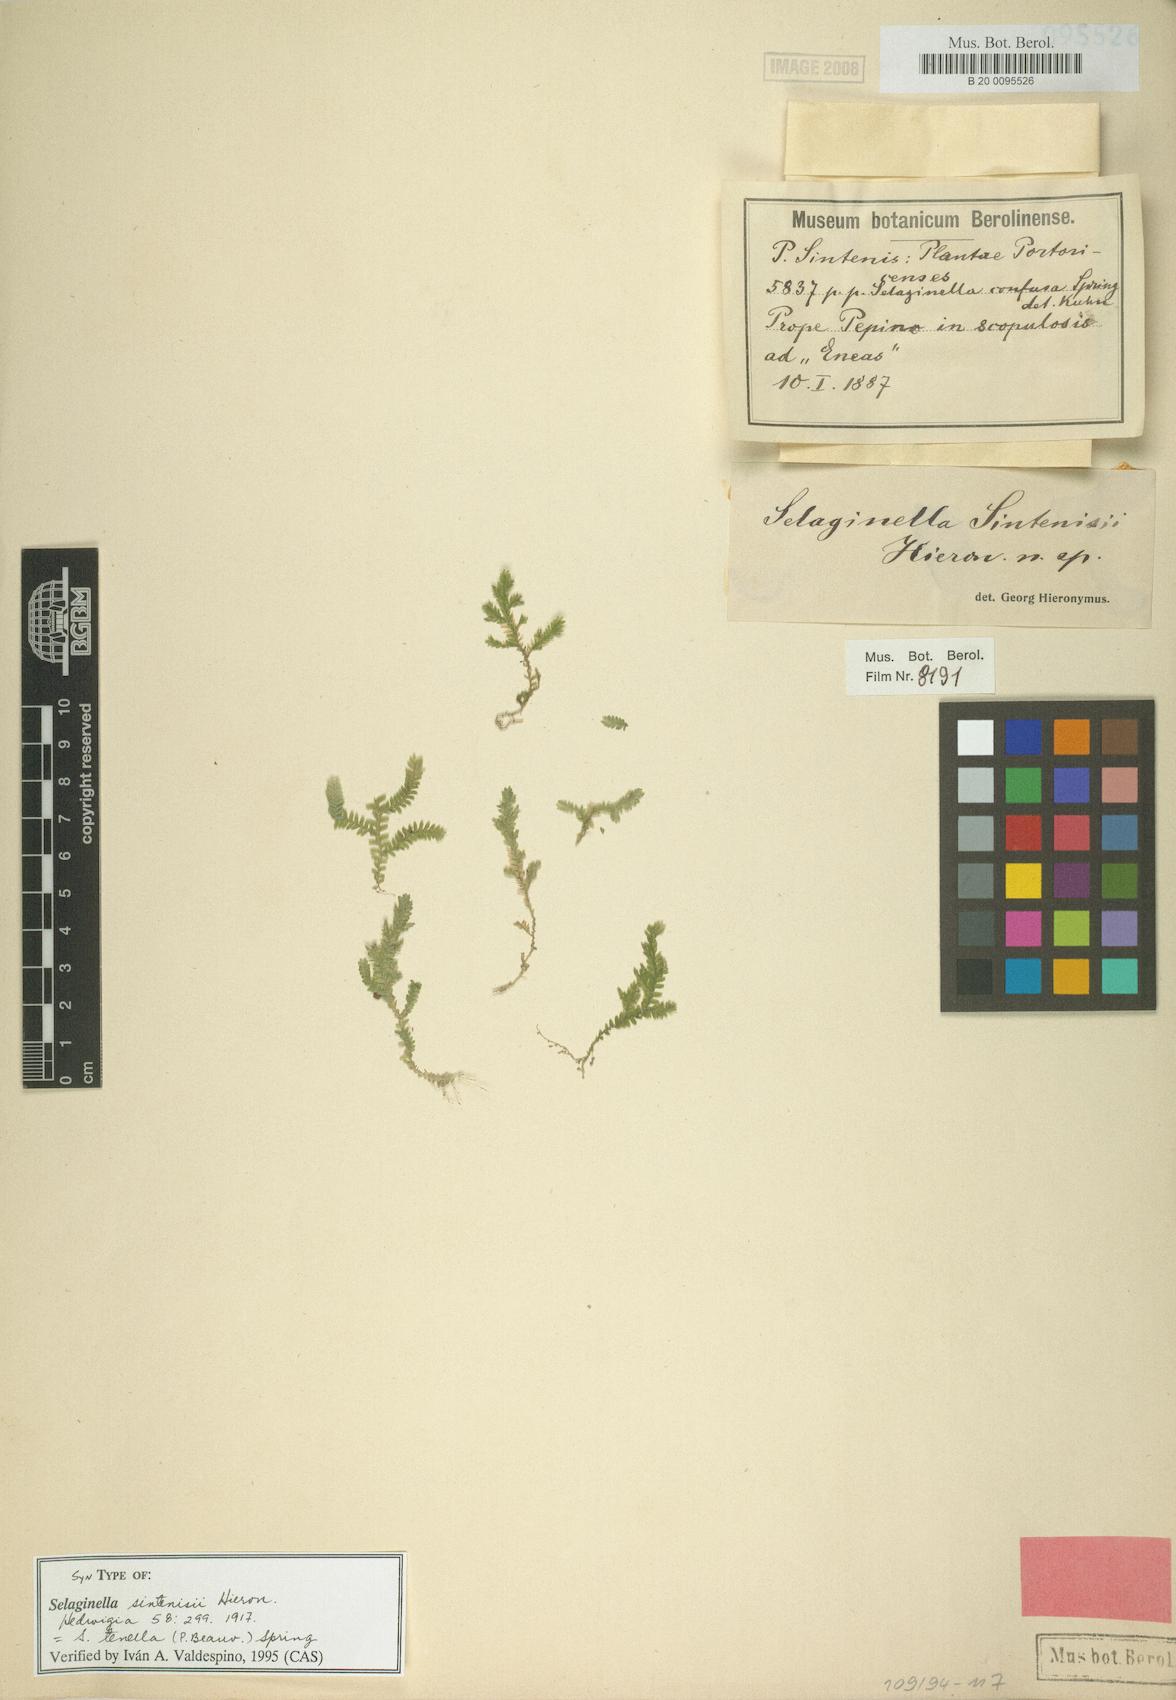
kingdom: Plantae
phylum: Tracheophyta
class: Lycopodiopsida
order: Selaginellales
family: Selaginellaceae
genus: Selaginella
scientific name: Selaginella tenella
